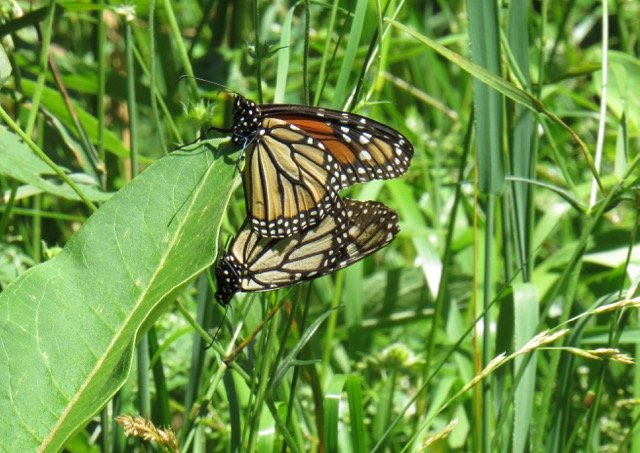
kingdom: Animalia
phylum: Arthropoda
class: Insecta
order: Lepidoptera
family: Nymphalidae
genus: Danaus
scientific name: Danaus plexippus
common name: Monarch
